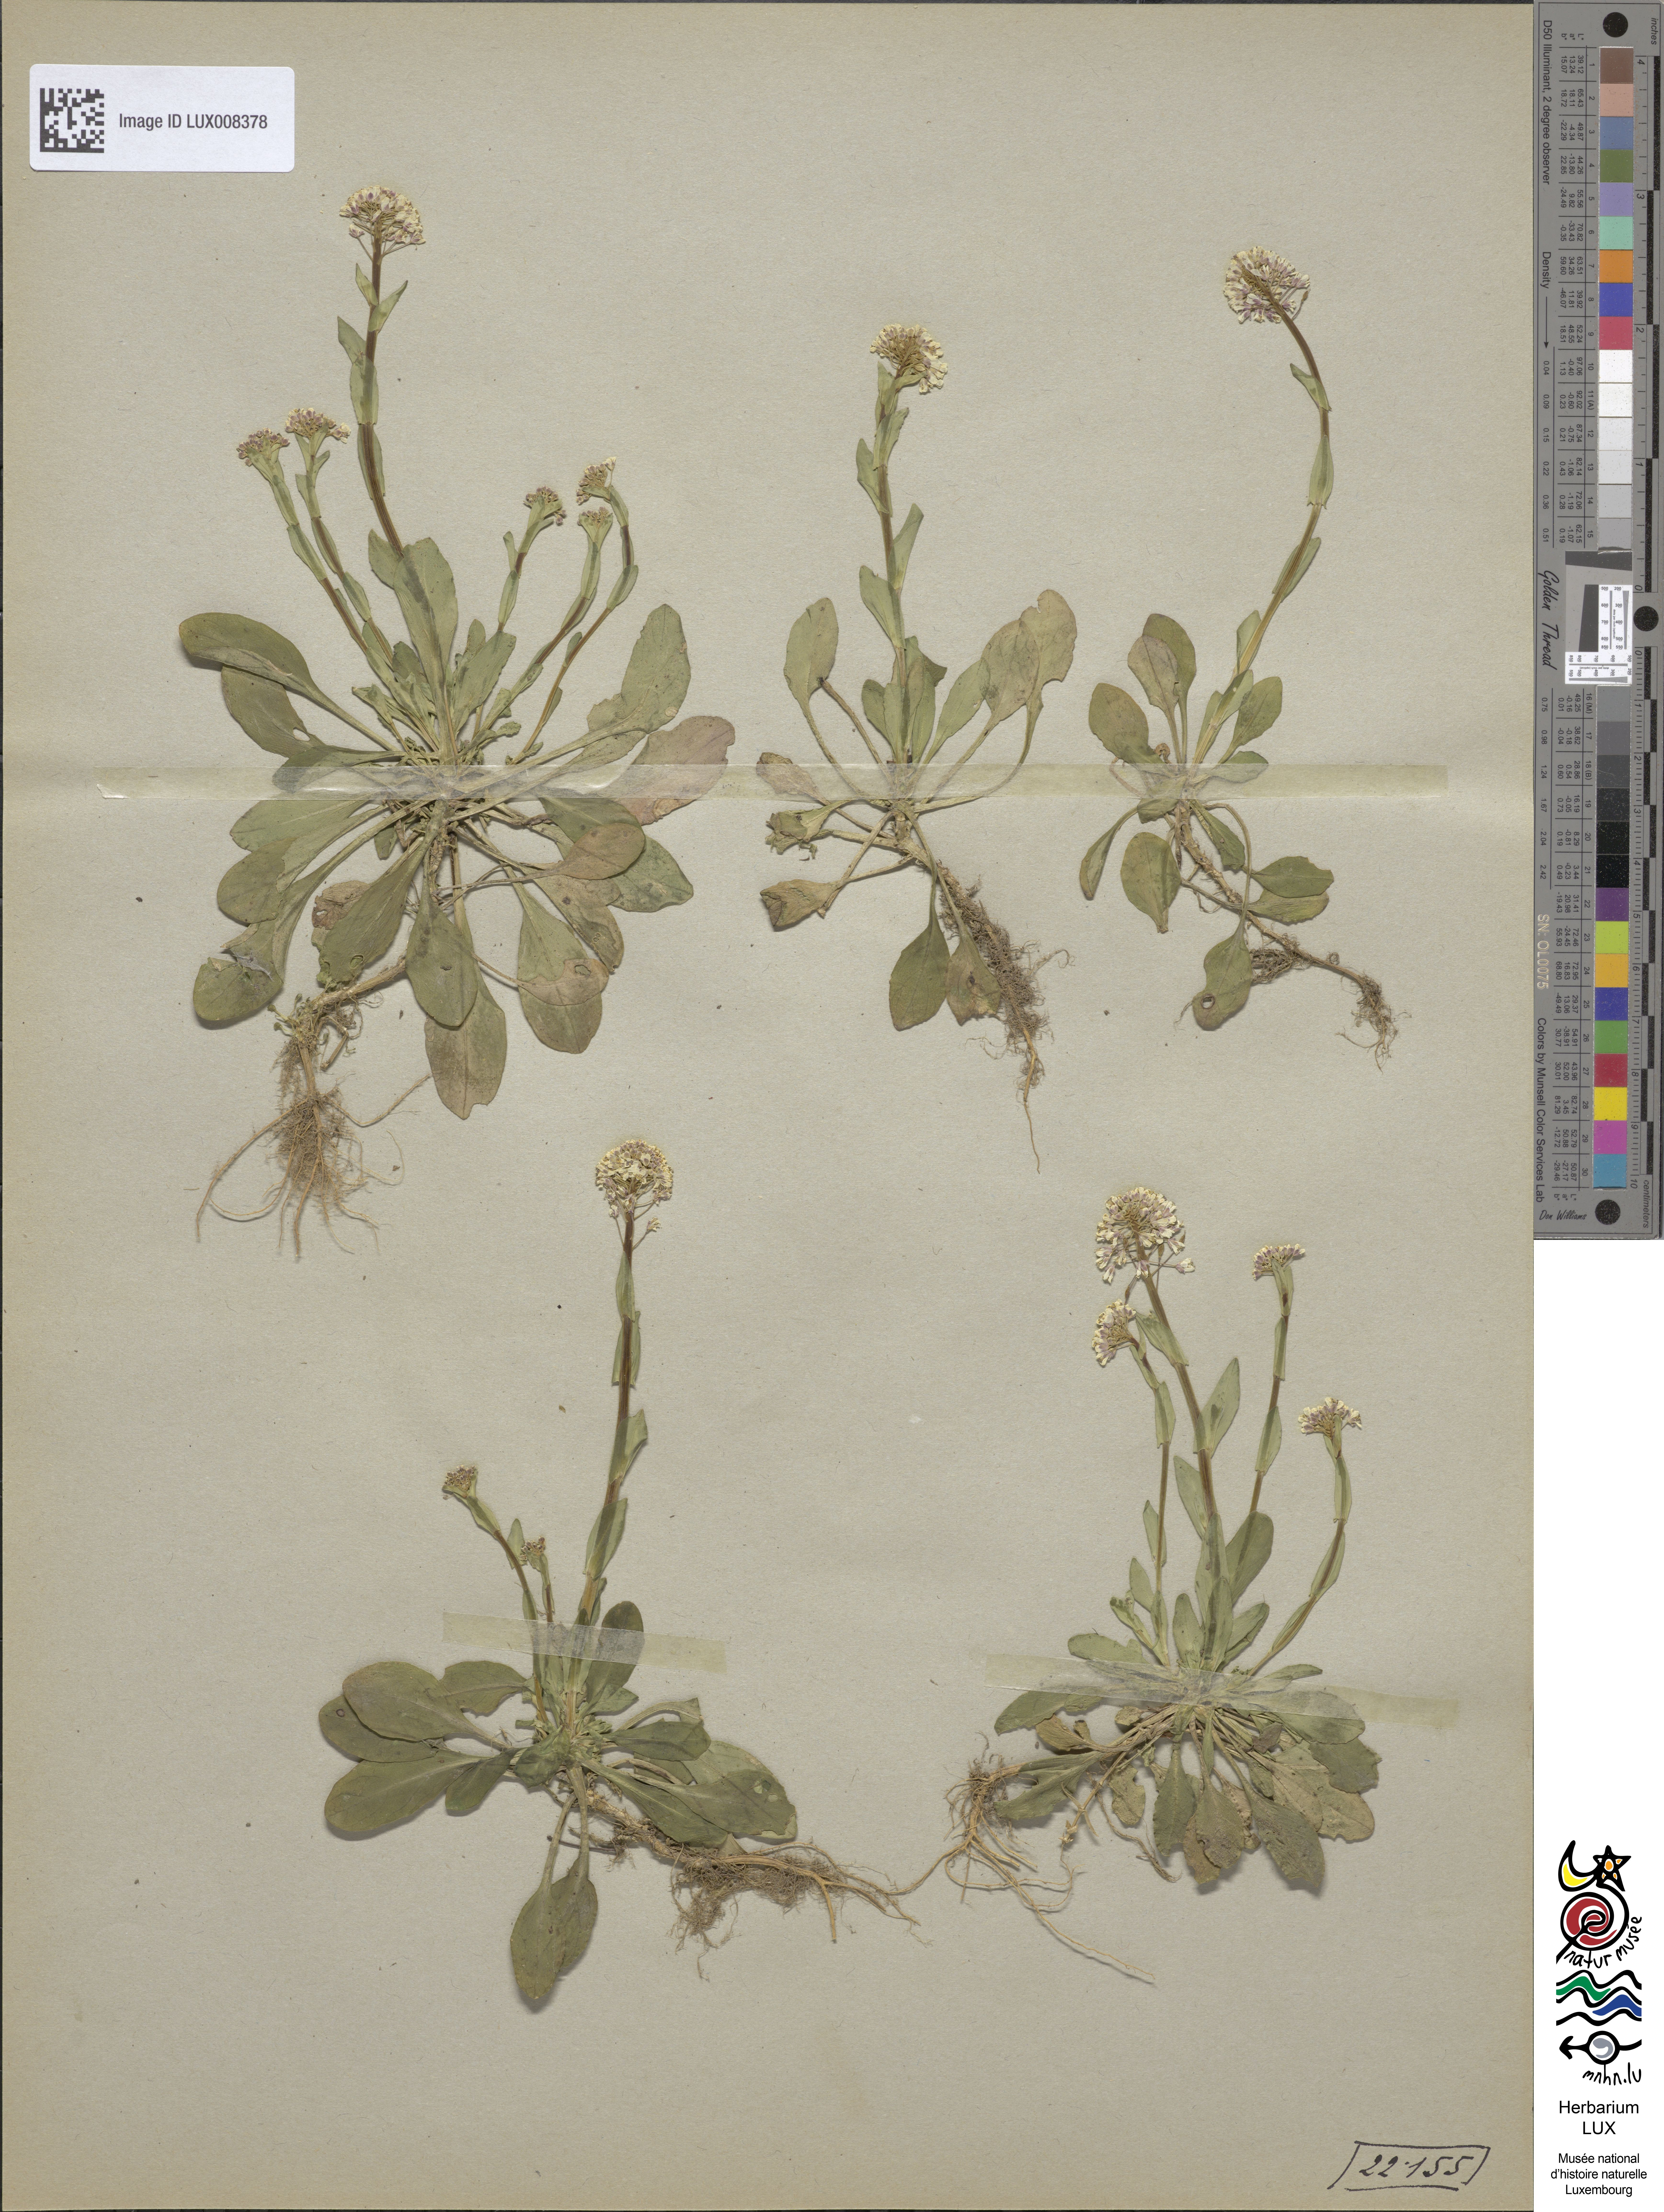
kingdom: Plantae
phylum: Tracheophyta
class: Magnoliopsida
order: Brassicales
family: Brassicaceae
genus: Thlaspi
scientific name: Thlaspi
